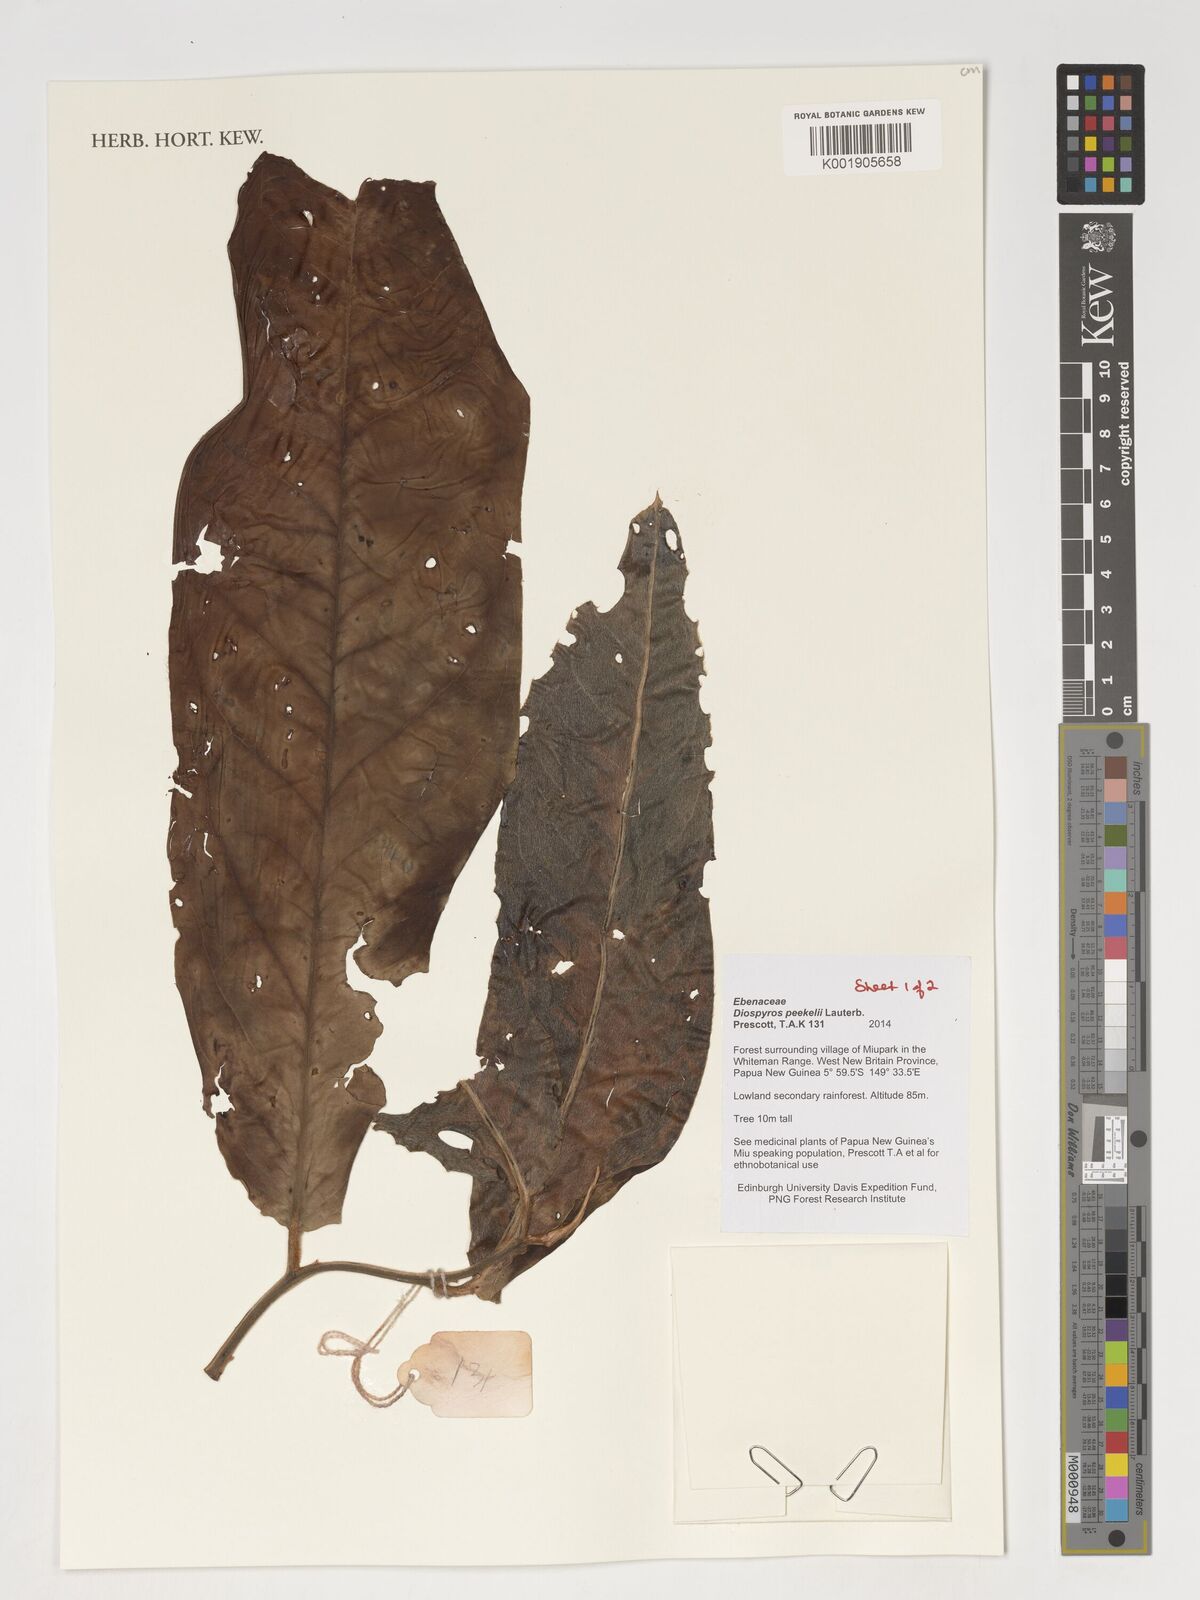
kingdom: Plantae
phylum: Tracheophyta
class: Magnoliopsida
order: Ericales
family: Ebenaceae
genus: Diospyros
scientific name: Diospyros peekelii
